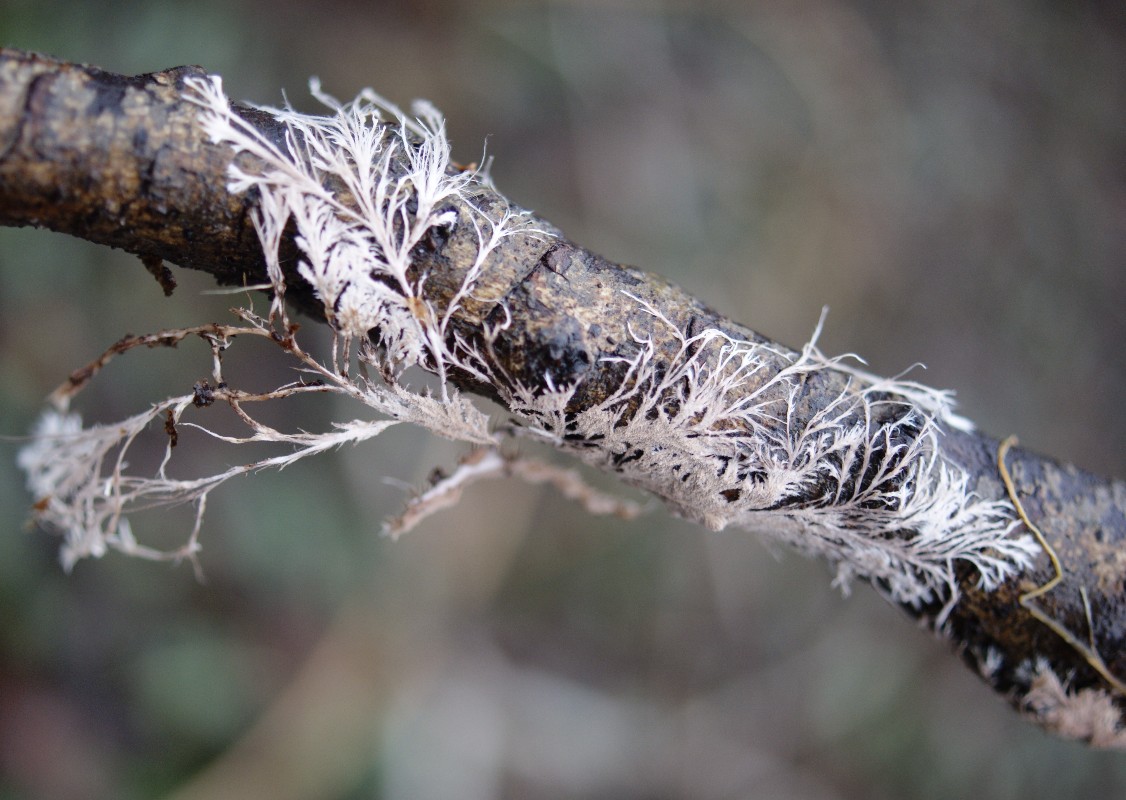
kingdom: Fungi
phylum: Basidiomycota
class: Agaricomycetes
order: Polyporales
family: Steccherinaceae
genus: Steccherinum
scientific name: Steccherinum fimbriatum
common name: trådet skønpig
